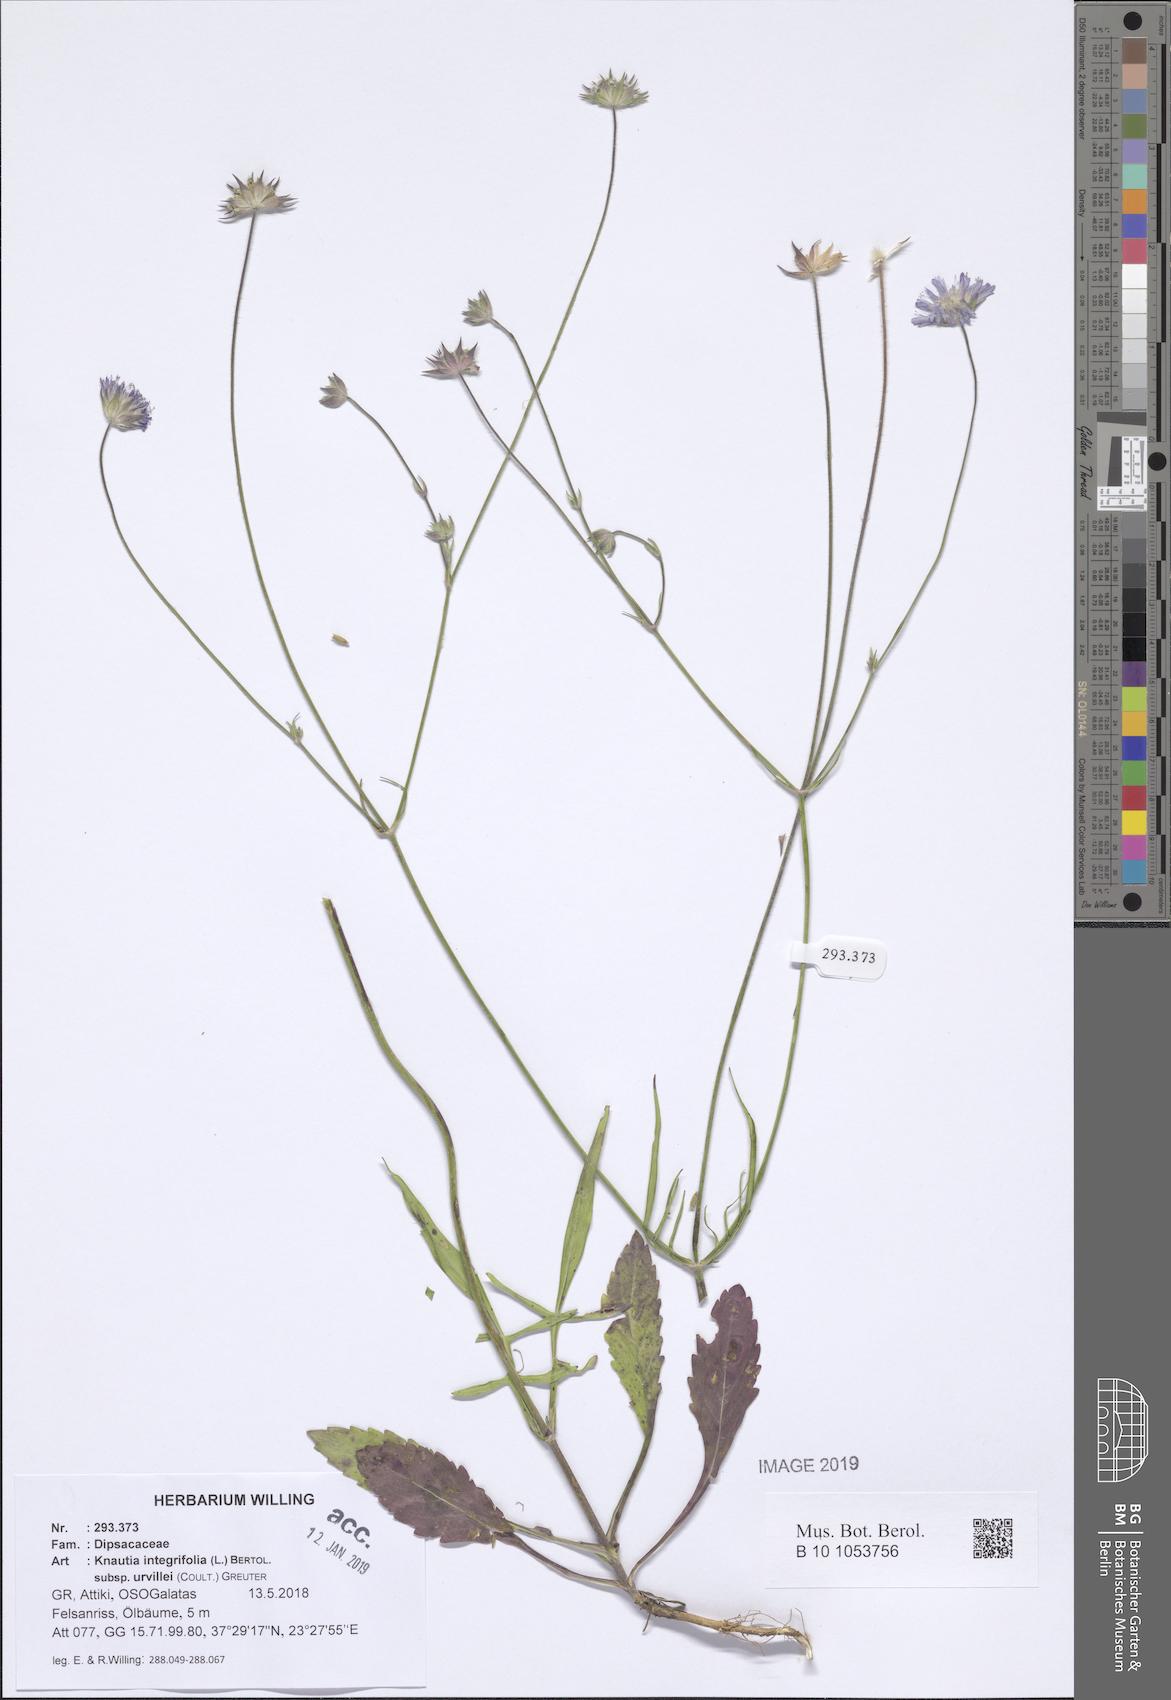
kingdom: Plantae
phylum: Tracheophyta
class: Magnoliopsida
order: Dipsacales
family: Caprifoliaceae
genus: Knautia
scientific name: Knautia integrifolia
